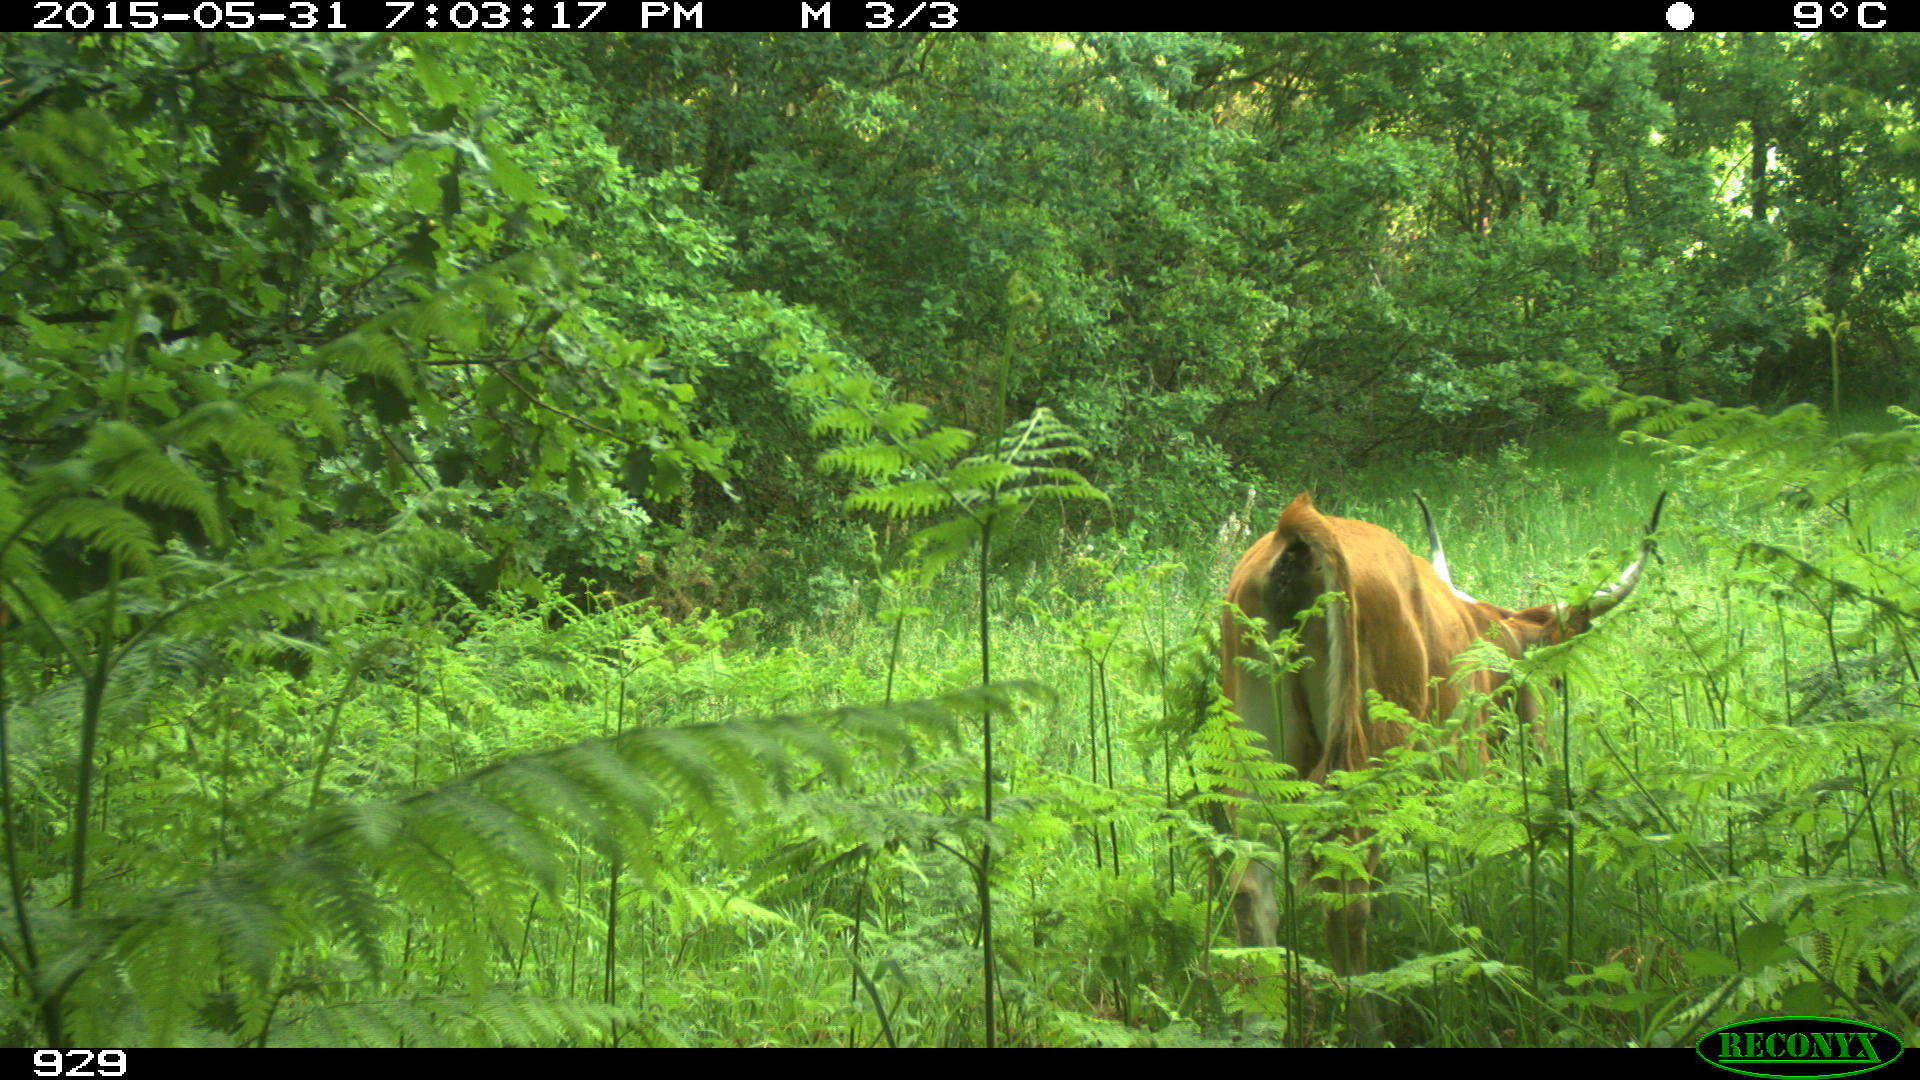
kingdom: Animalia
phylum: Chordata
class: Mammalia
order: Artiodactyla
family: Bovidae
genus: Bos
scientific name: Bos taurus
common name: Domesticated cattle
